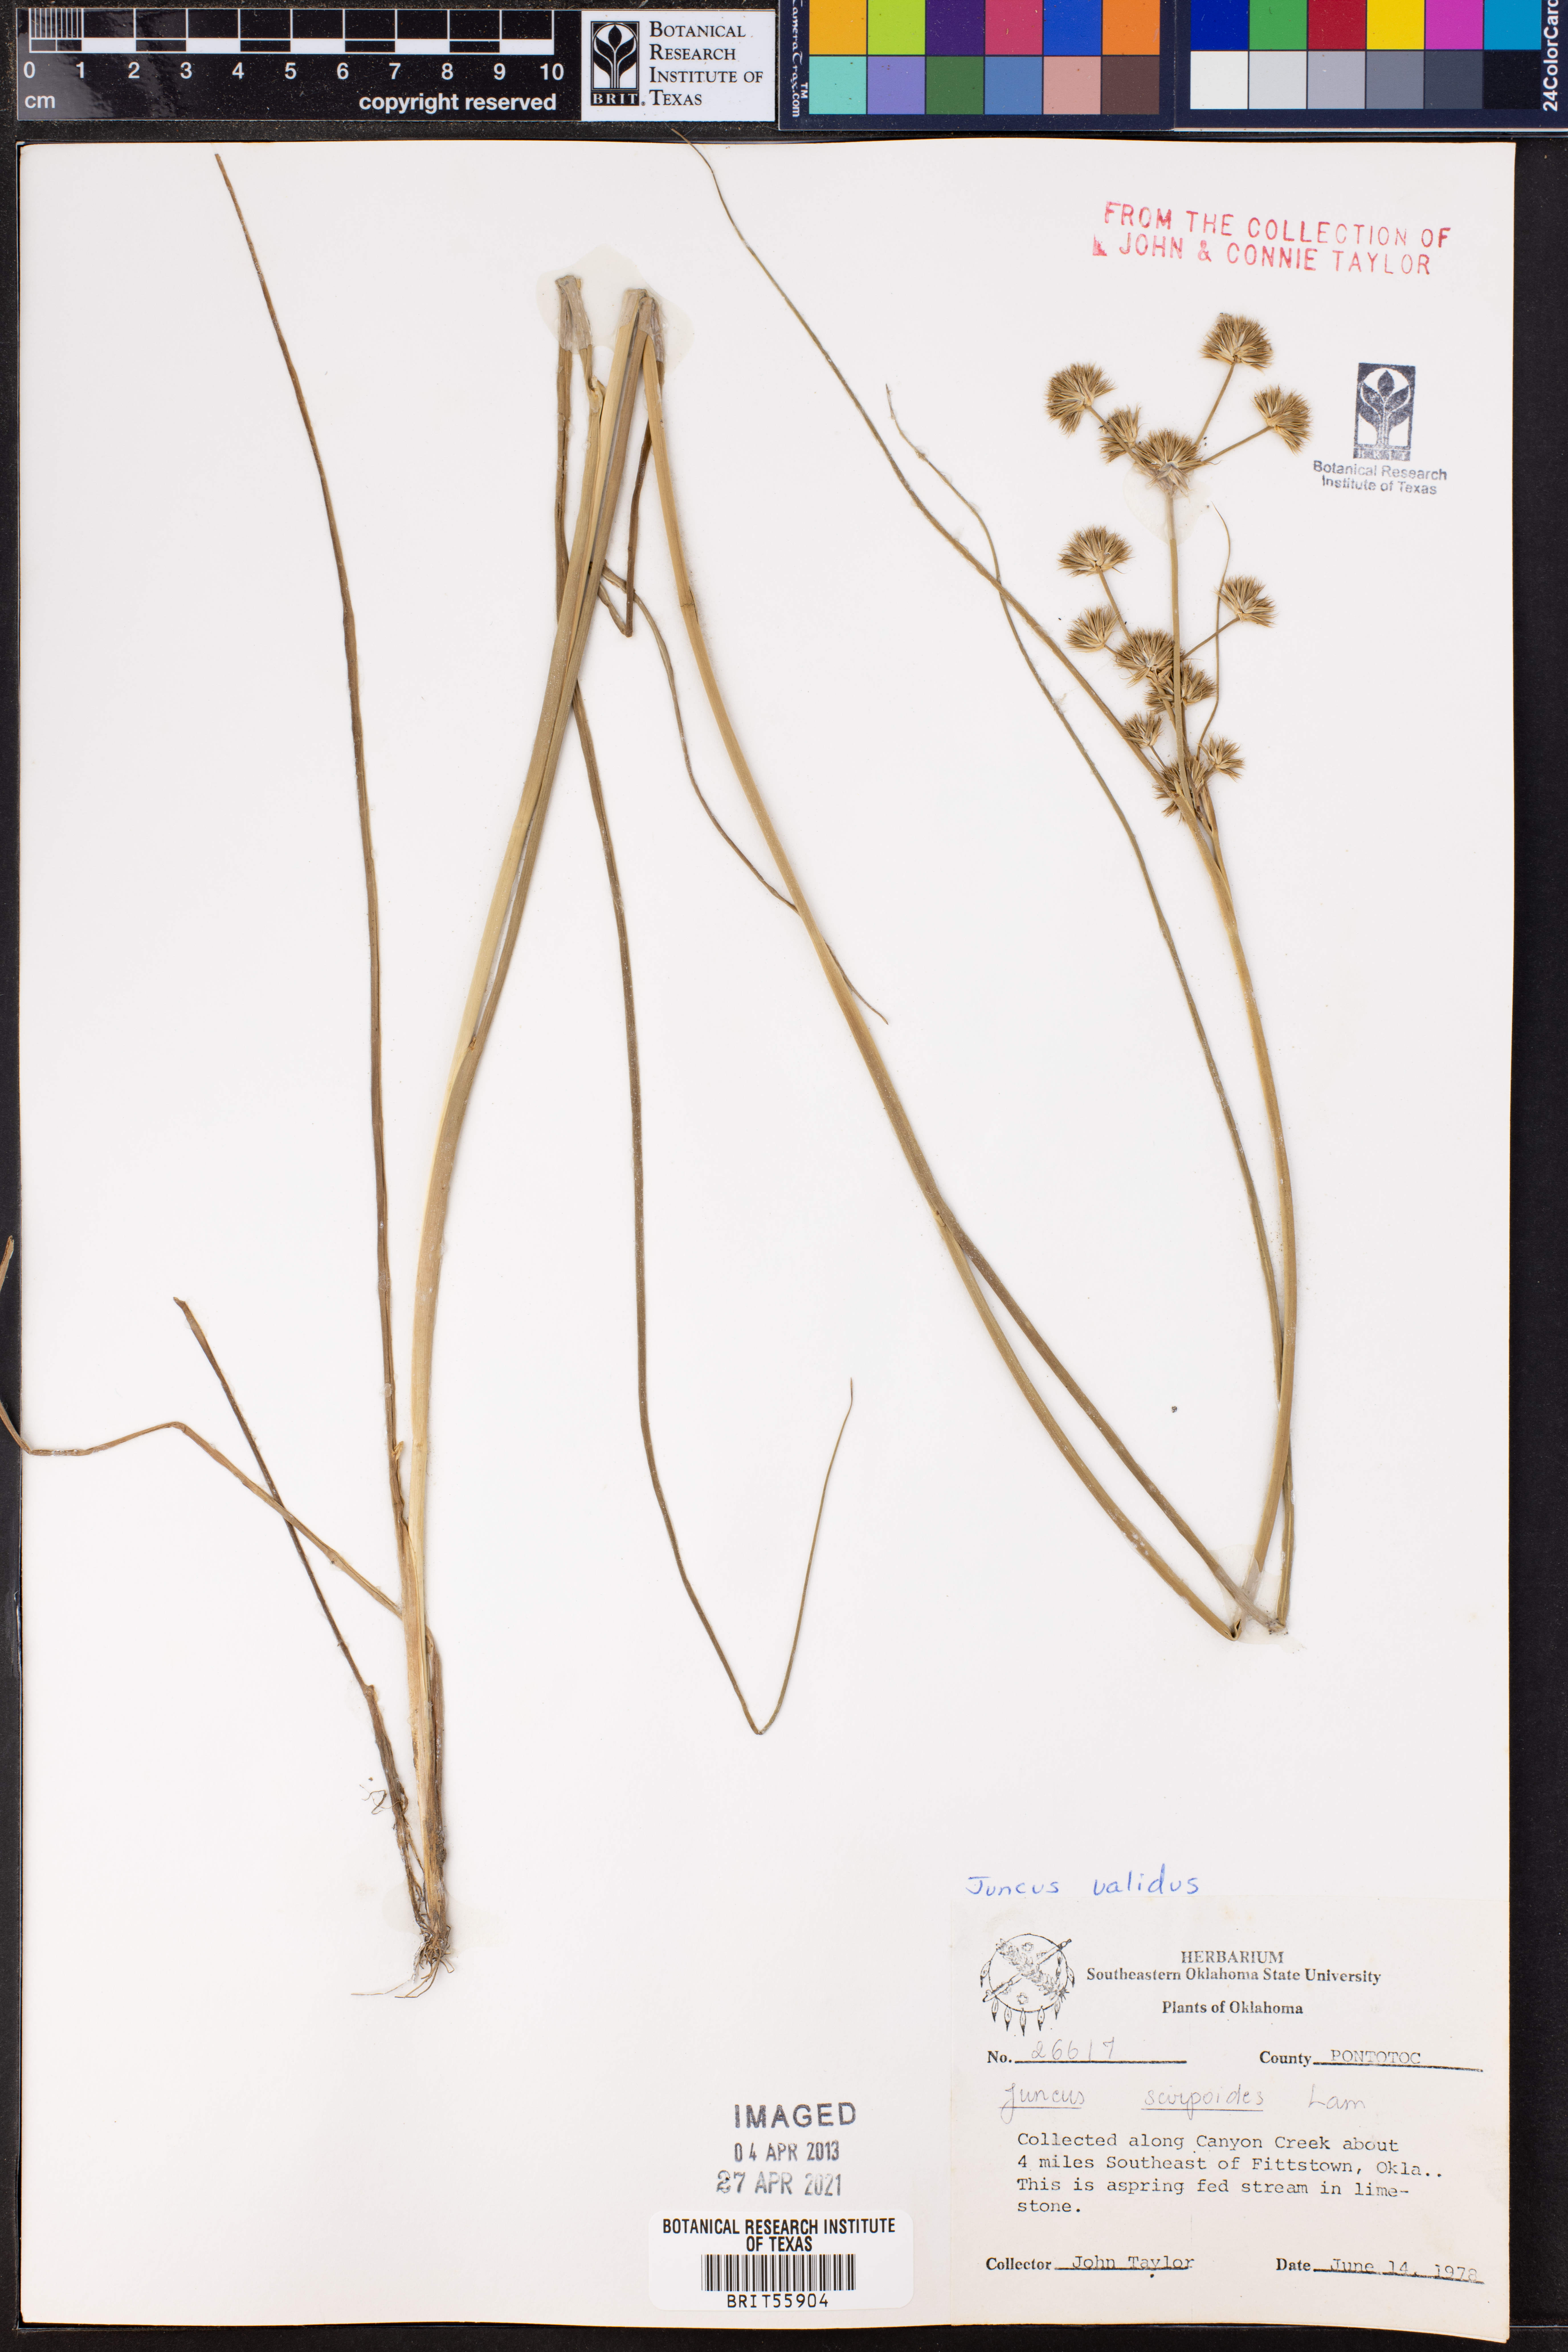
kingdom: Plantae
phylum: Tracheophyta
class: Liliopsida
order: Poales
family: Juncaceae
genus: Juncus
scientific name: Juncus validus
